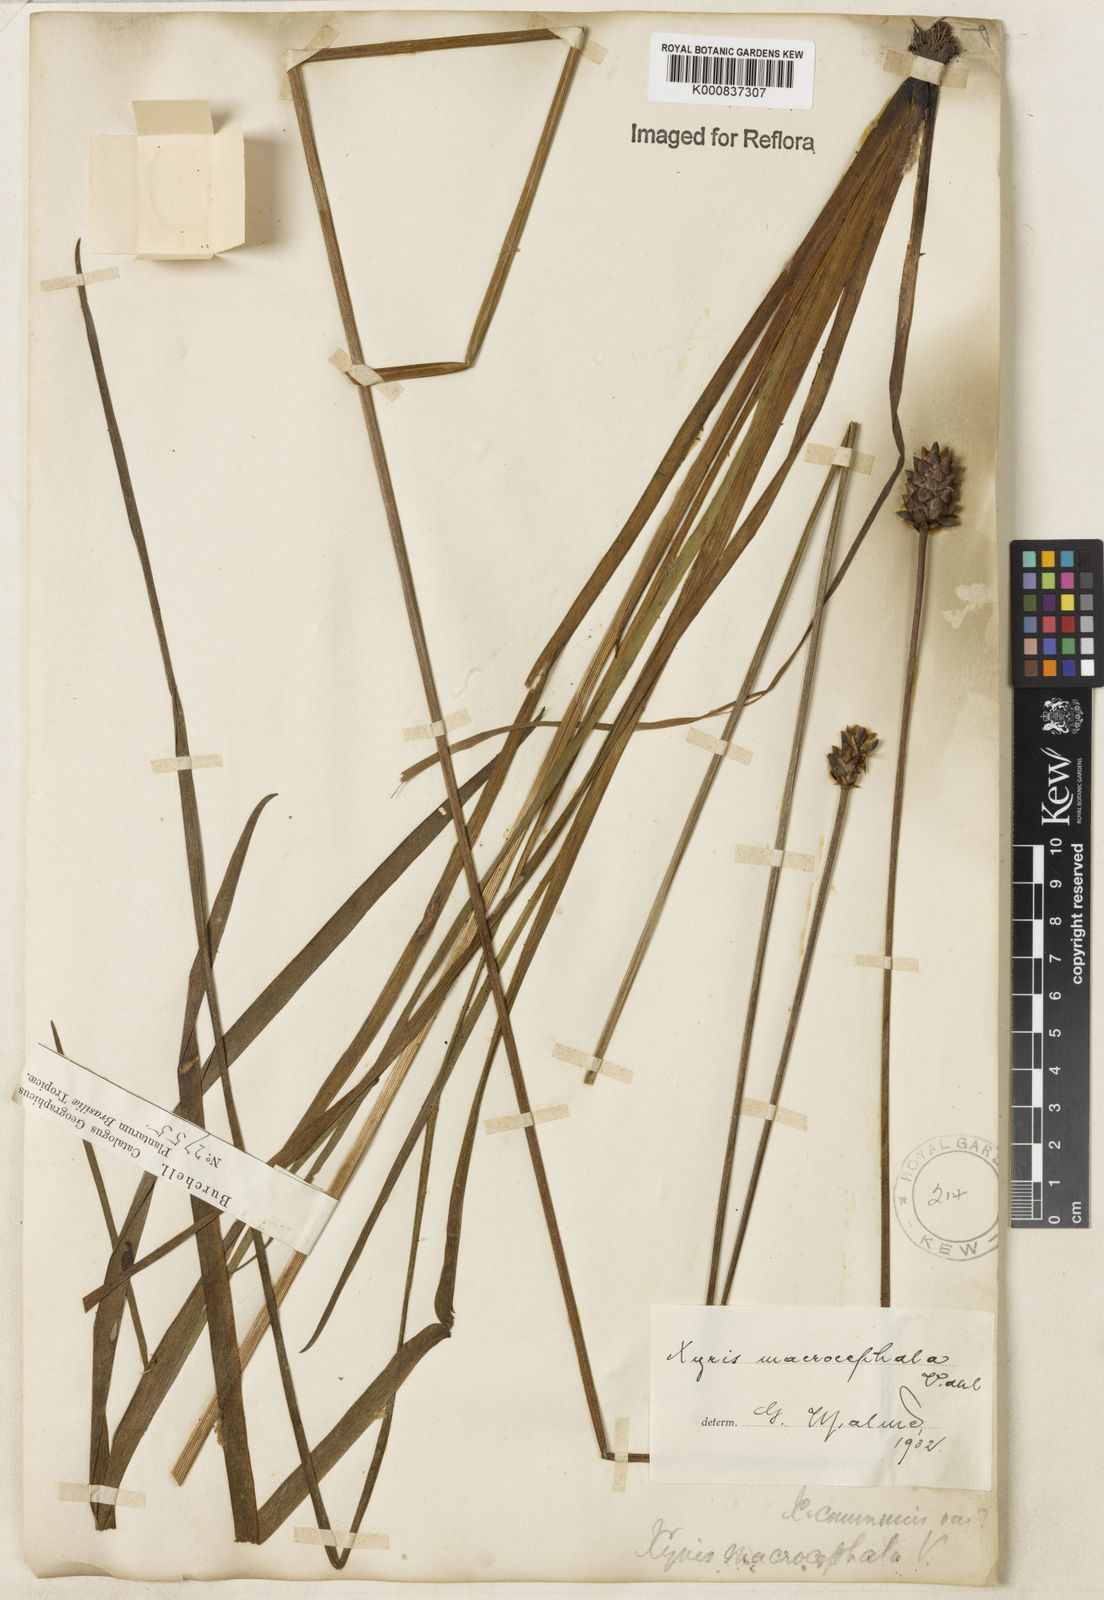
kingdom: Plantae
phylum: Tracheophyta
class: Liliopsida
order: Poales
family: Xyridaceae
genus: Xyris
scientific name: Xyris jupicai
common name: Richard's yelloweyed grass
